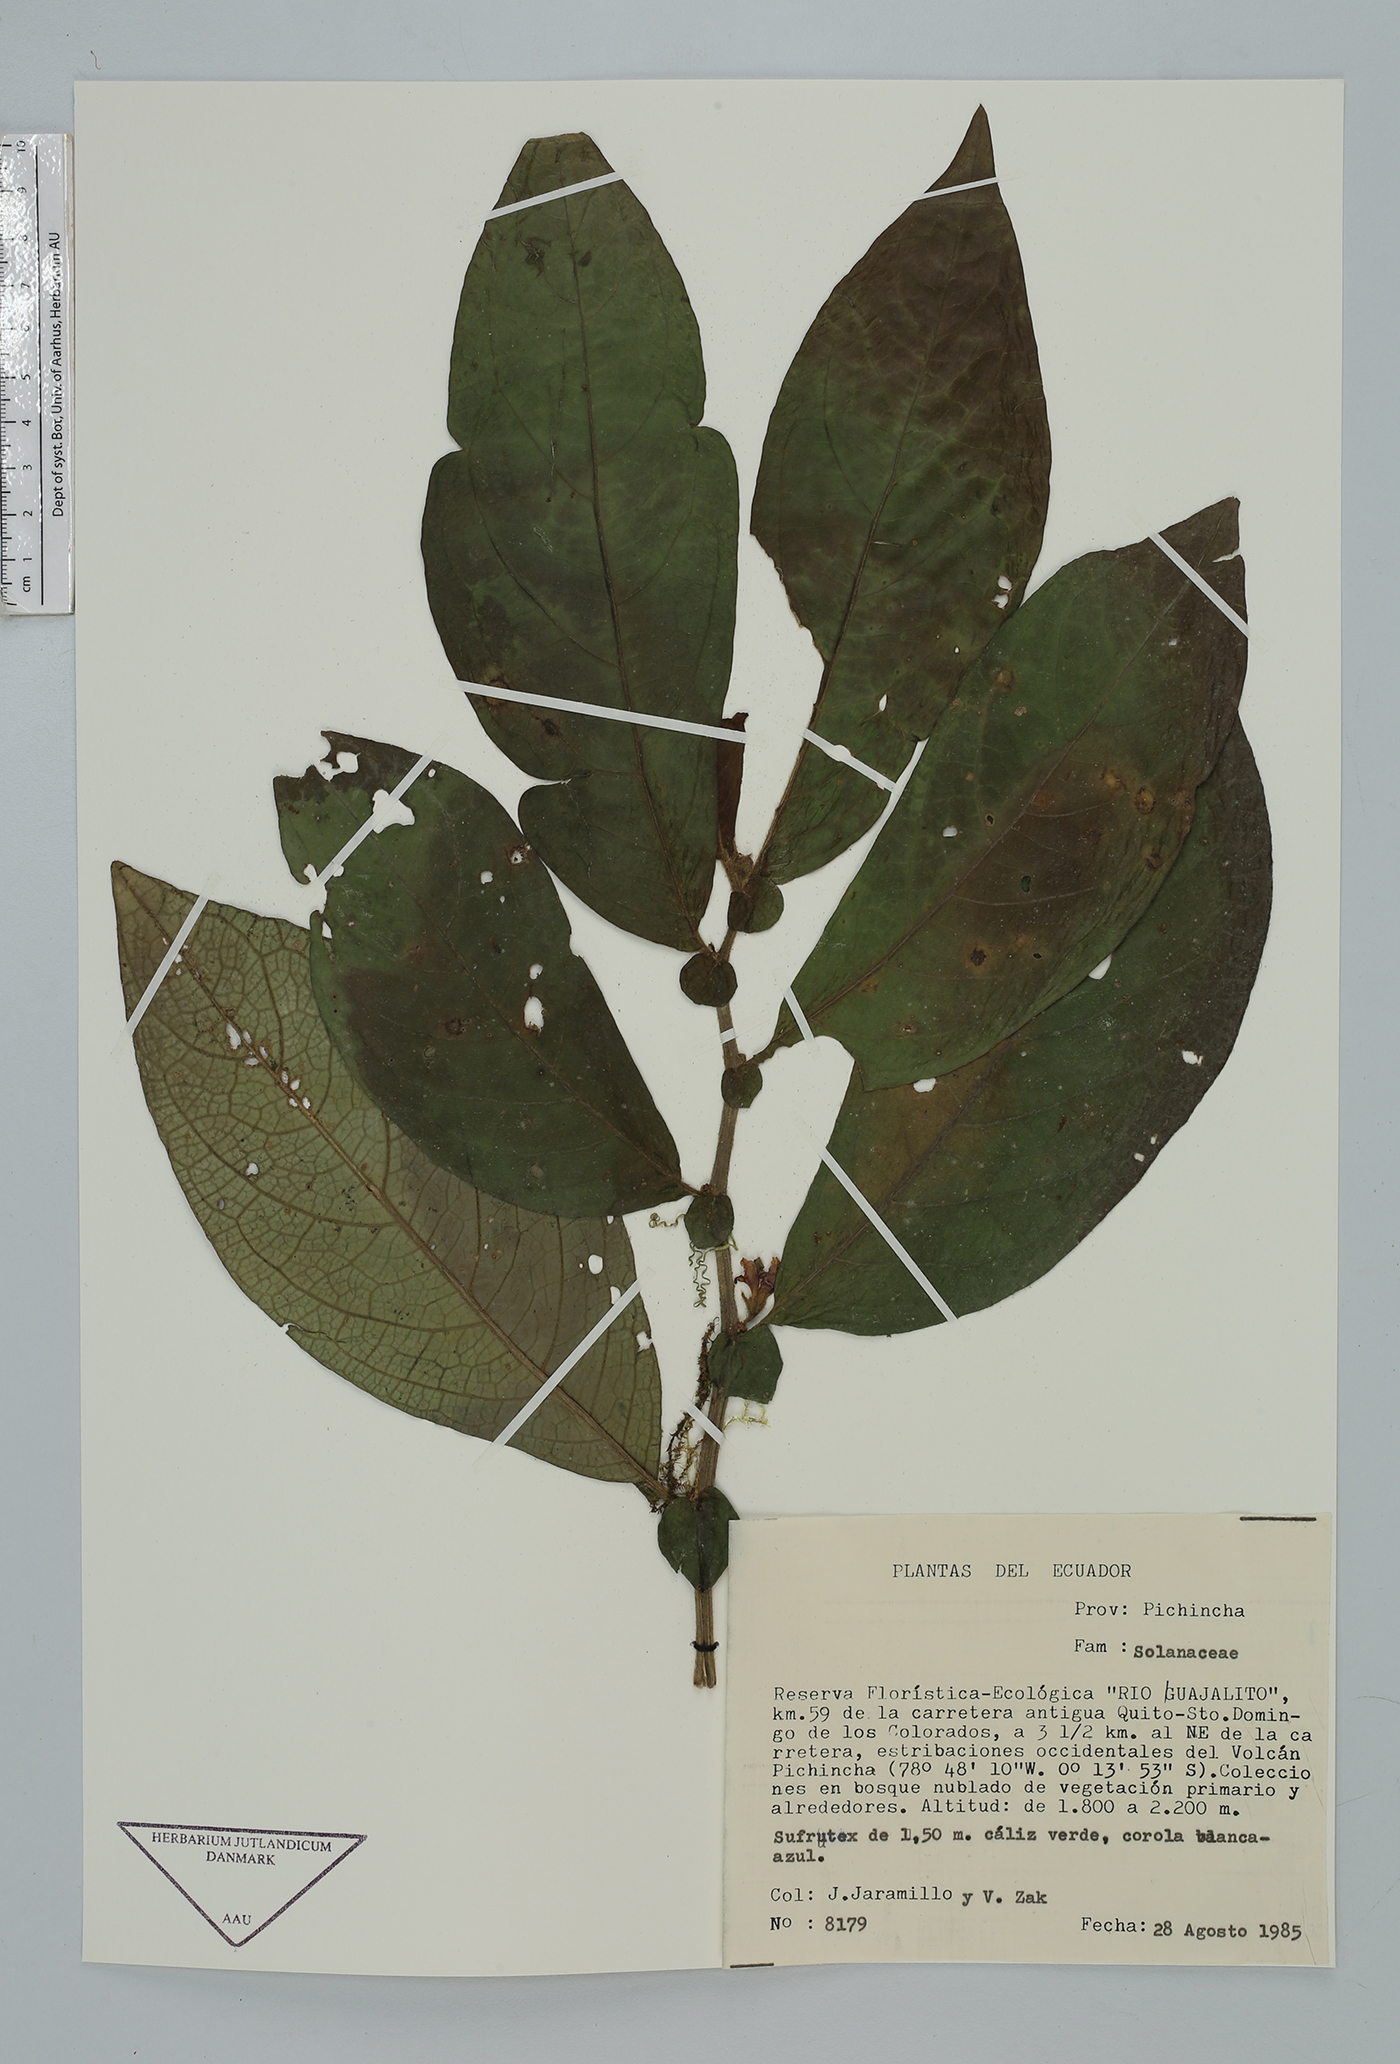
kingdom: Plantae
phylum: Tracheophyta
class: Magnoliopsida
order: Solanales
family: Solanaceae
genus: Cuatresia
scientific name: Cuatresia harlingiana
